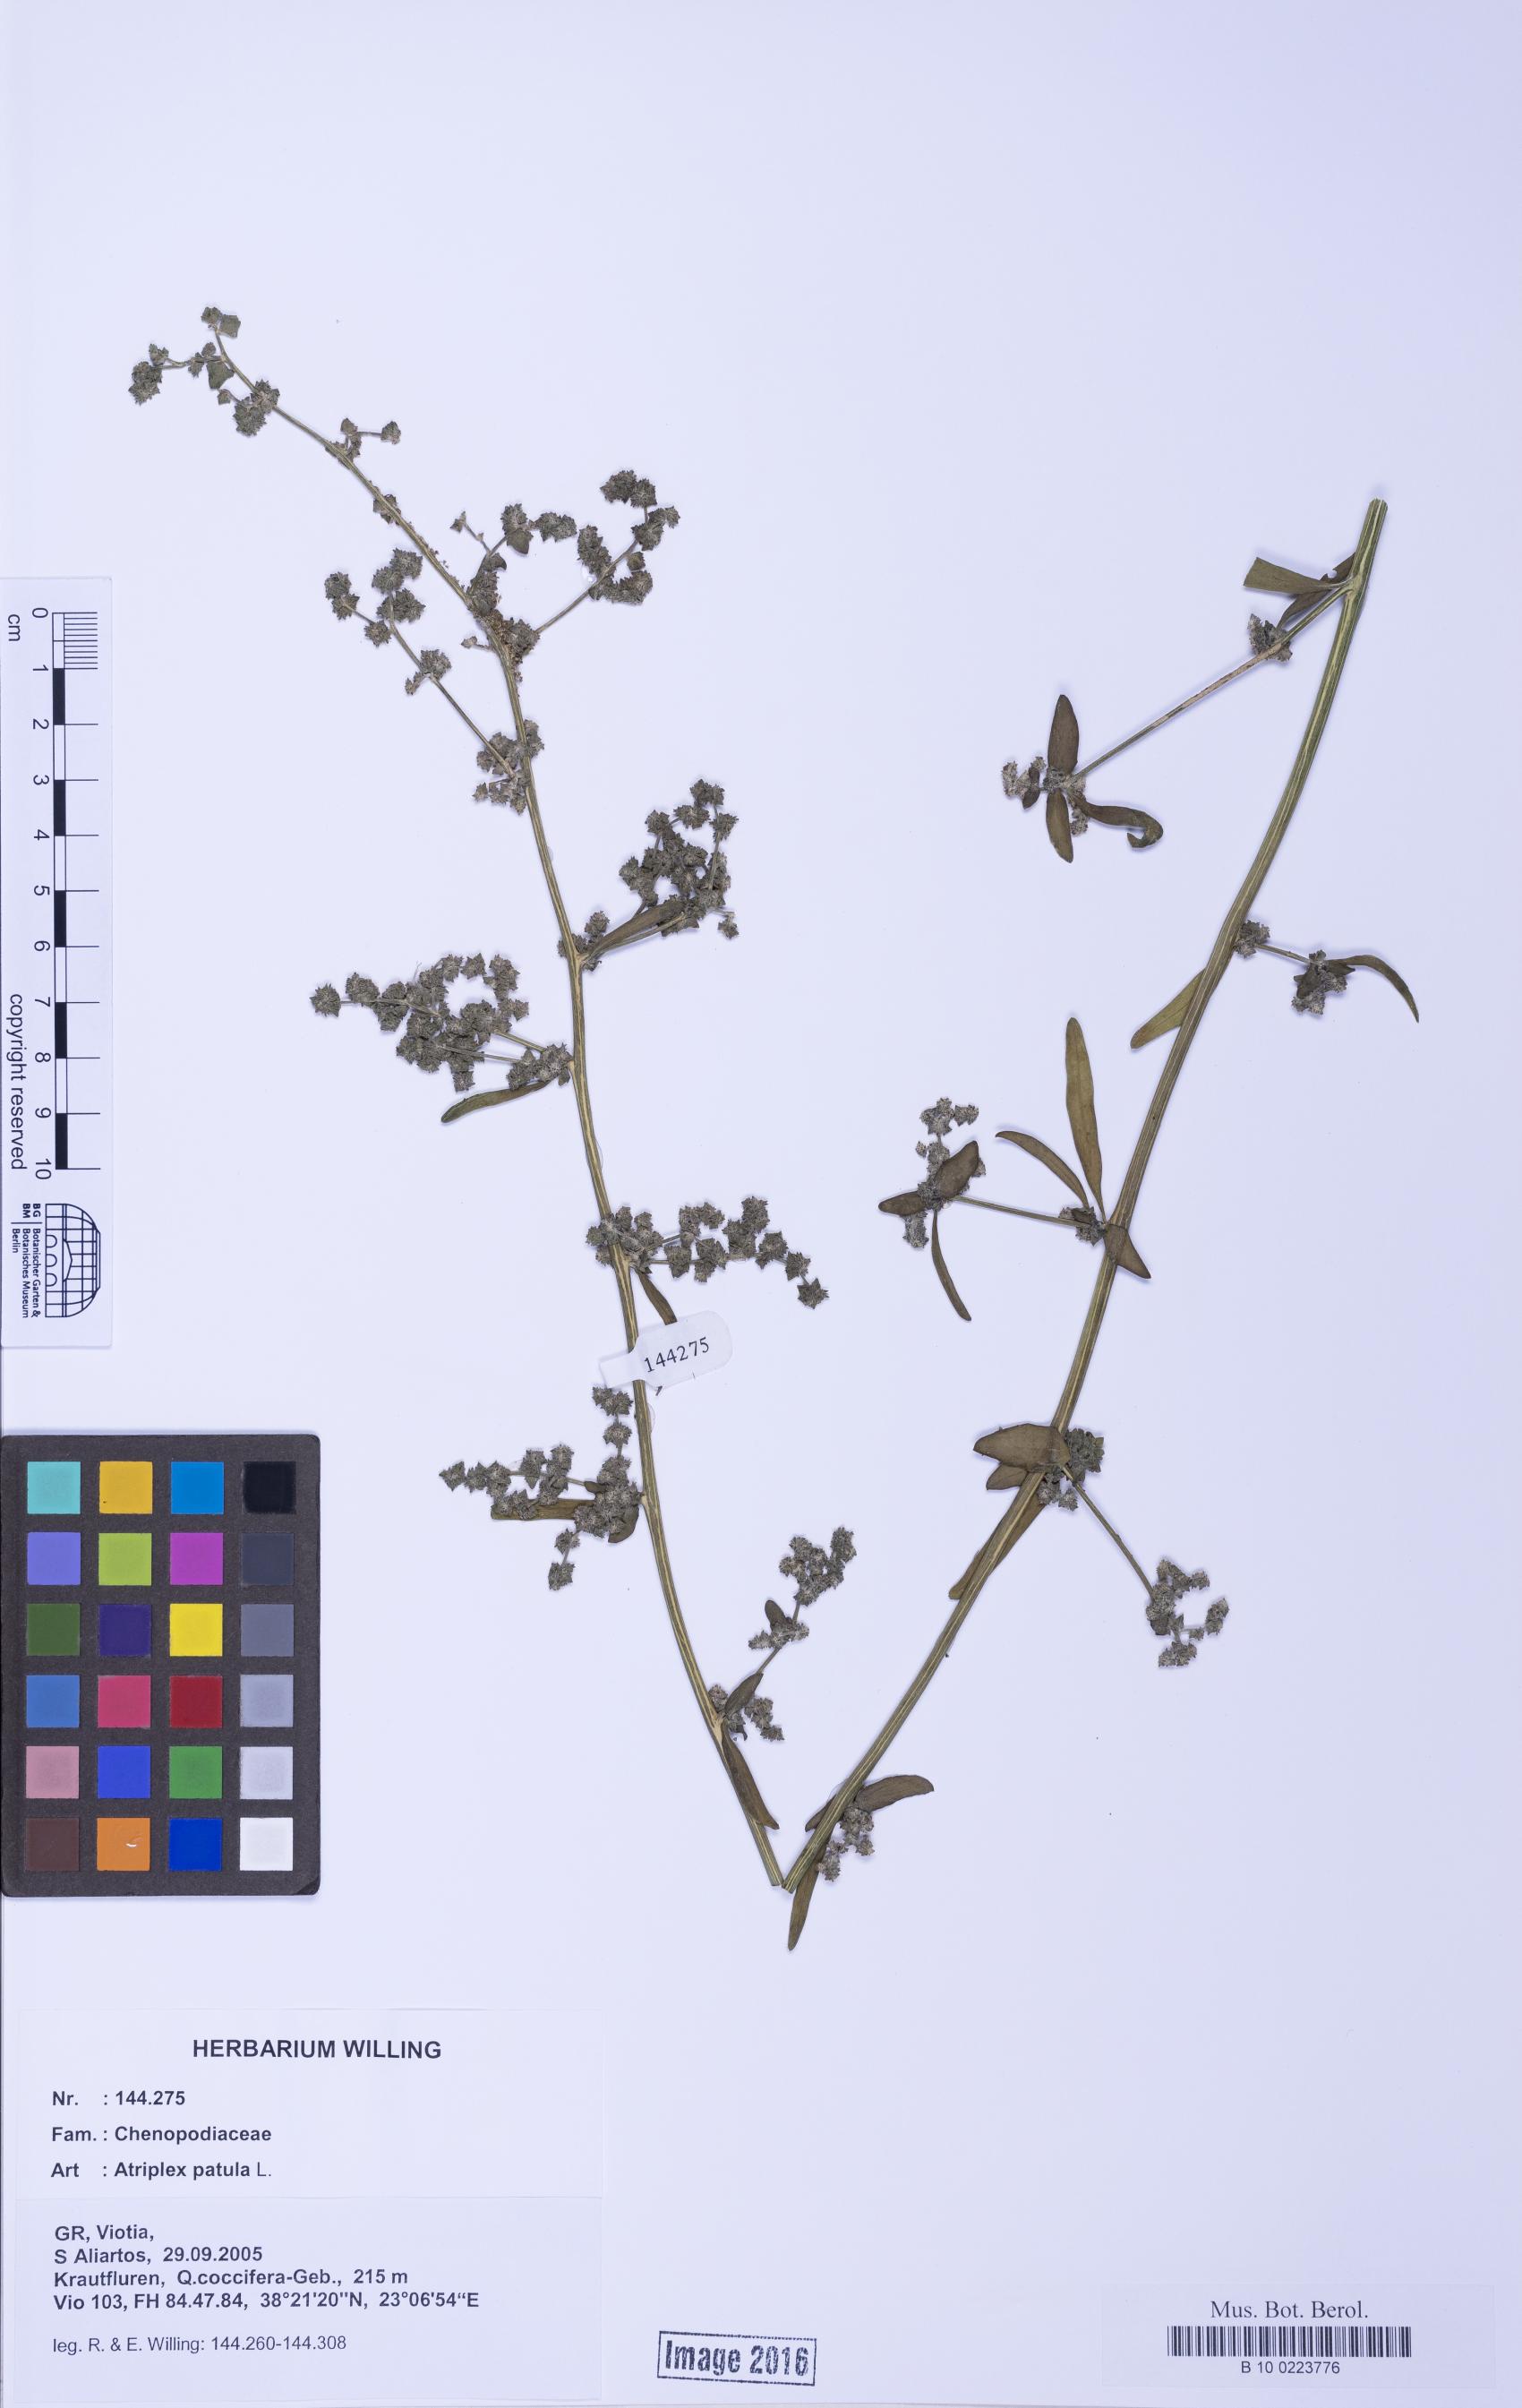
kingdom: Plantae
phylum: Tracheophyta
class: Magnoliopsida
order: Caryophyllales
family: Amaranthaceae
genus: Atriplex
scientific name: Atriplex patula
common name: Common orache
